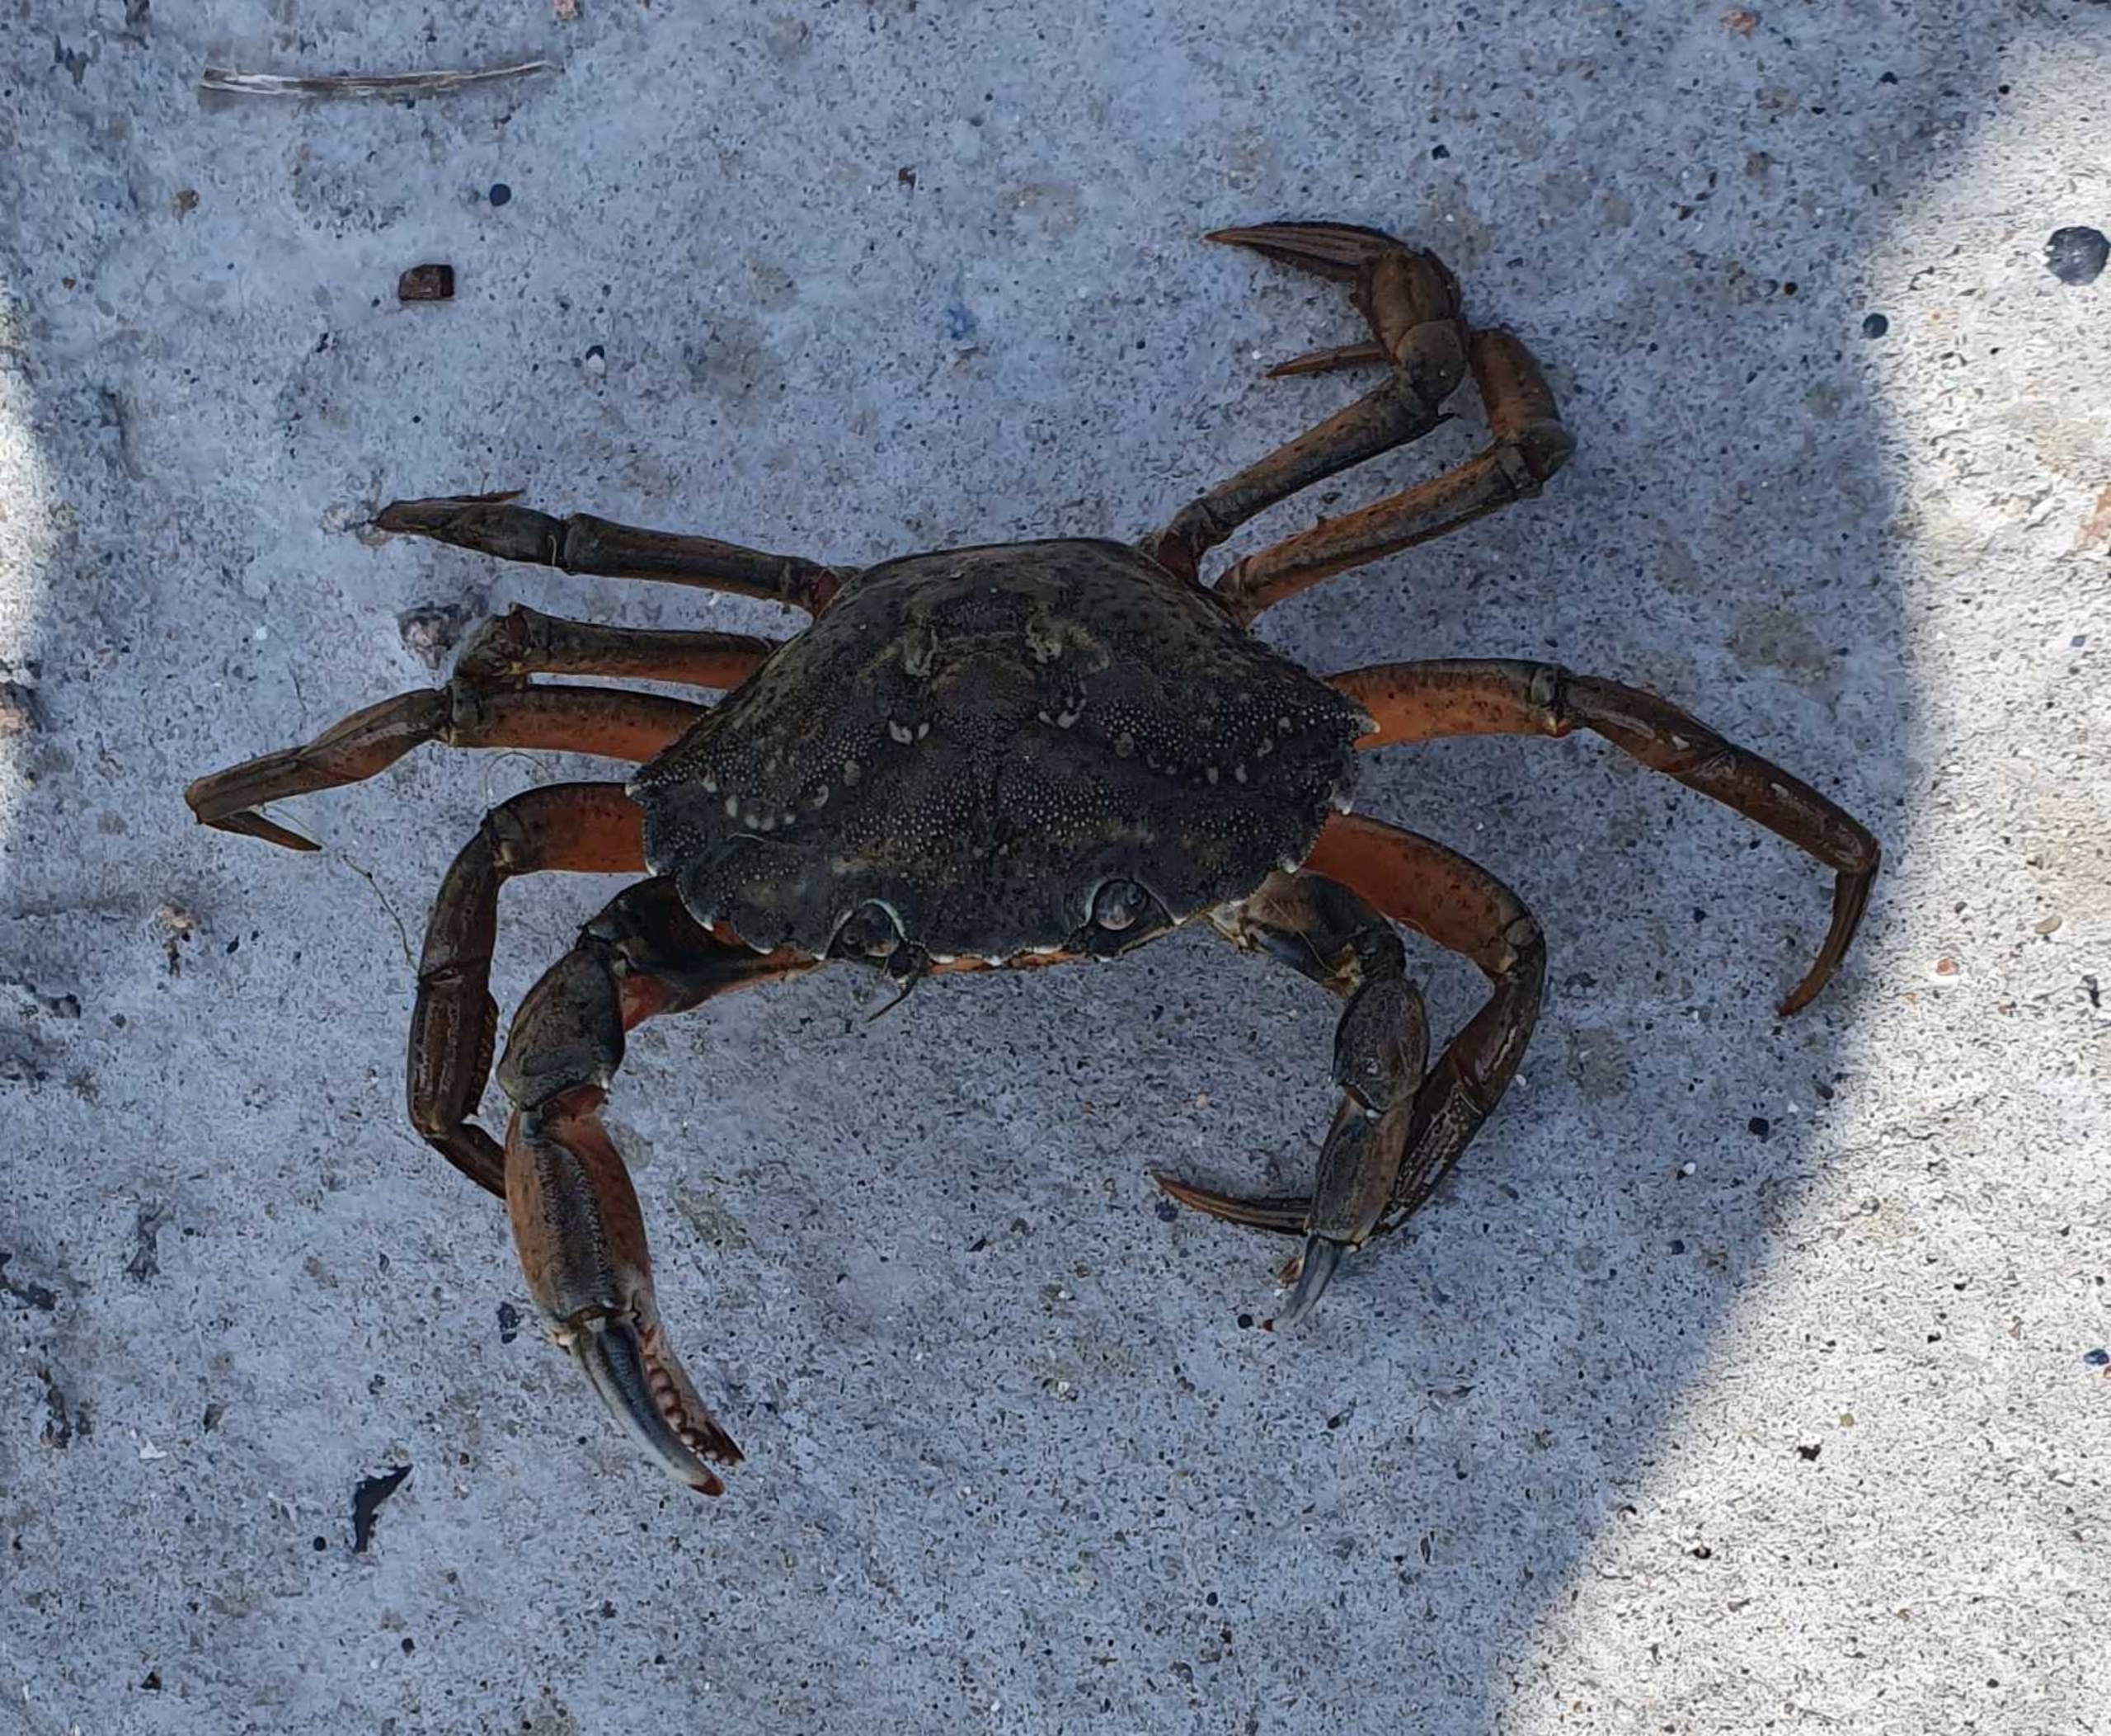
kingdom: Animalia
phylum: Arthropoda
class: Malacostraca
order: Decapoda
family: Carcinidae
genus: Carcinus
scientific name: Carcinus maenas
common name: Almindelig strandkrabbe
